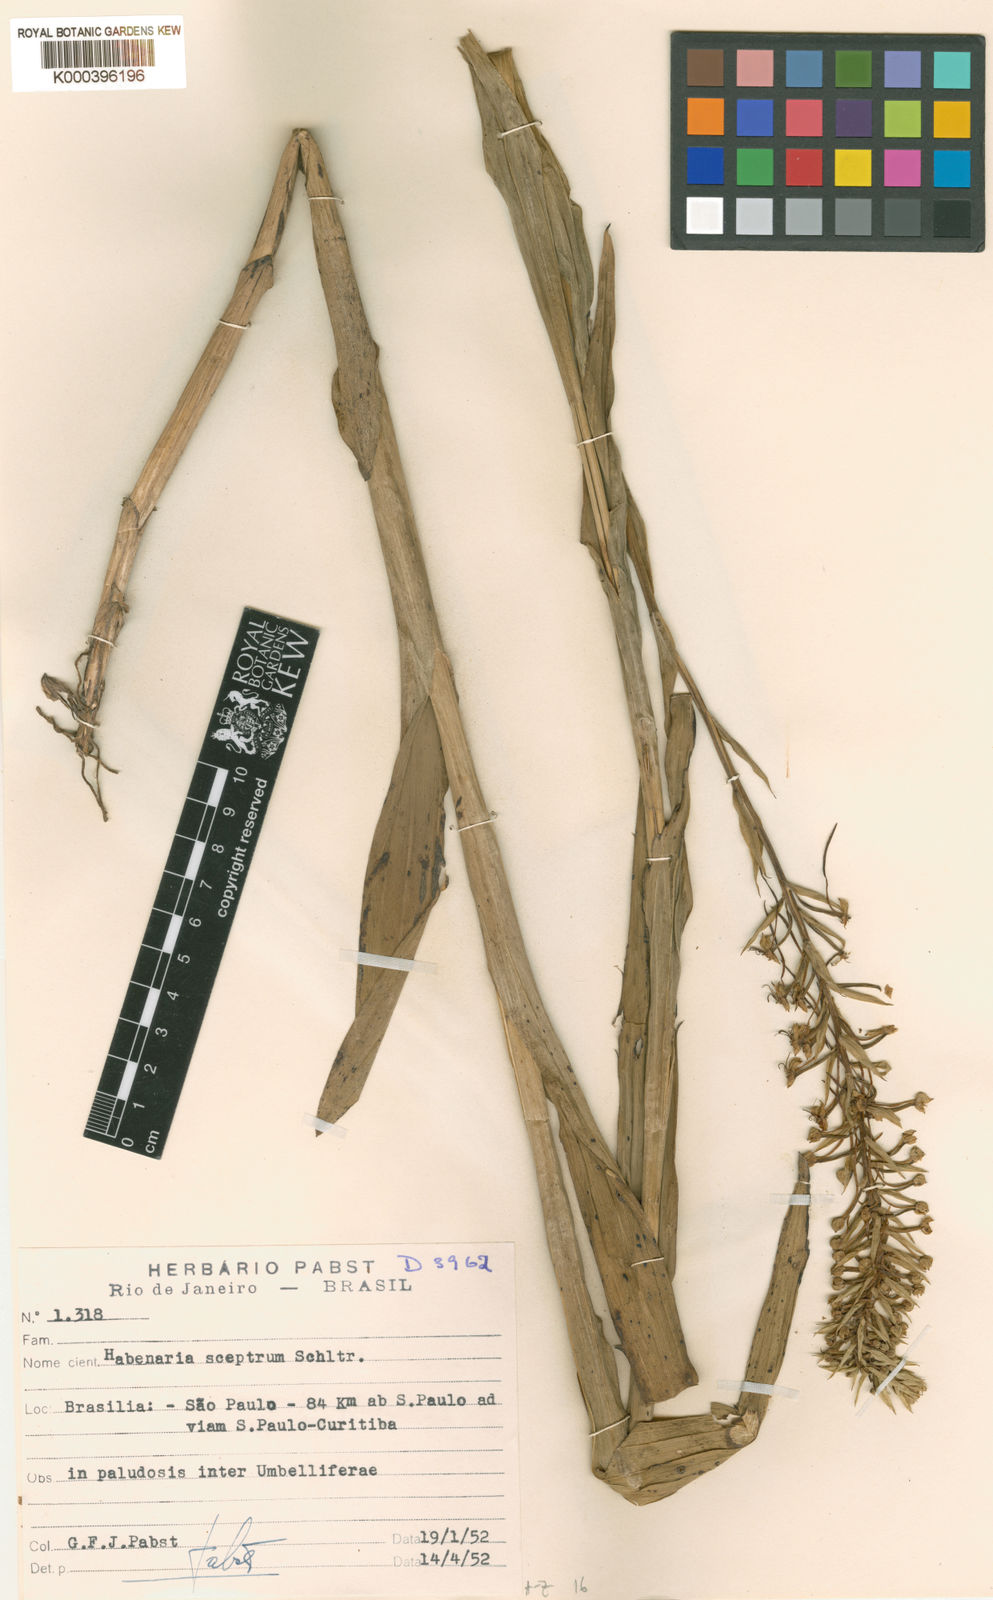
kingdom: Plantae
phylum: Tracheophyta
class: Liliopsida
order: Asparagales
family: Orchidaceae
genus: Habenaria
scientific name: Habenaria exaltata
